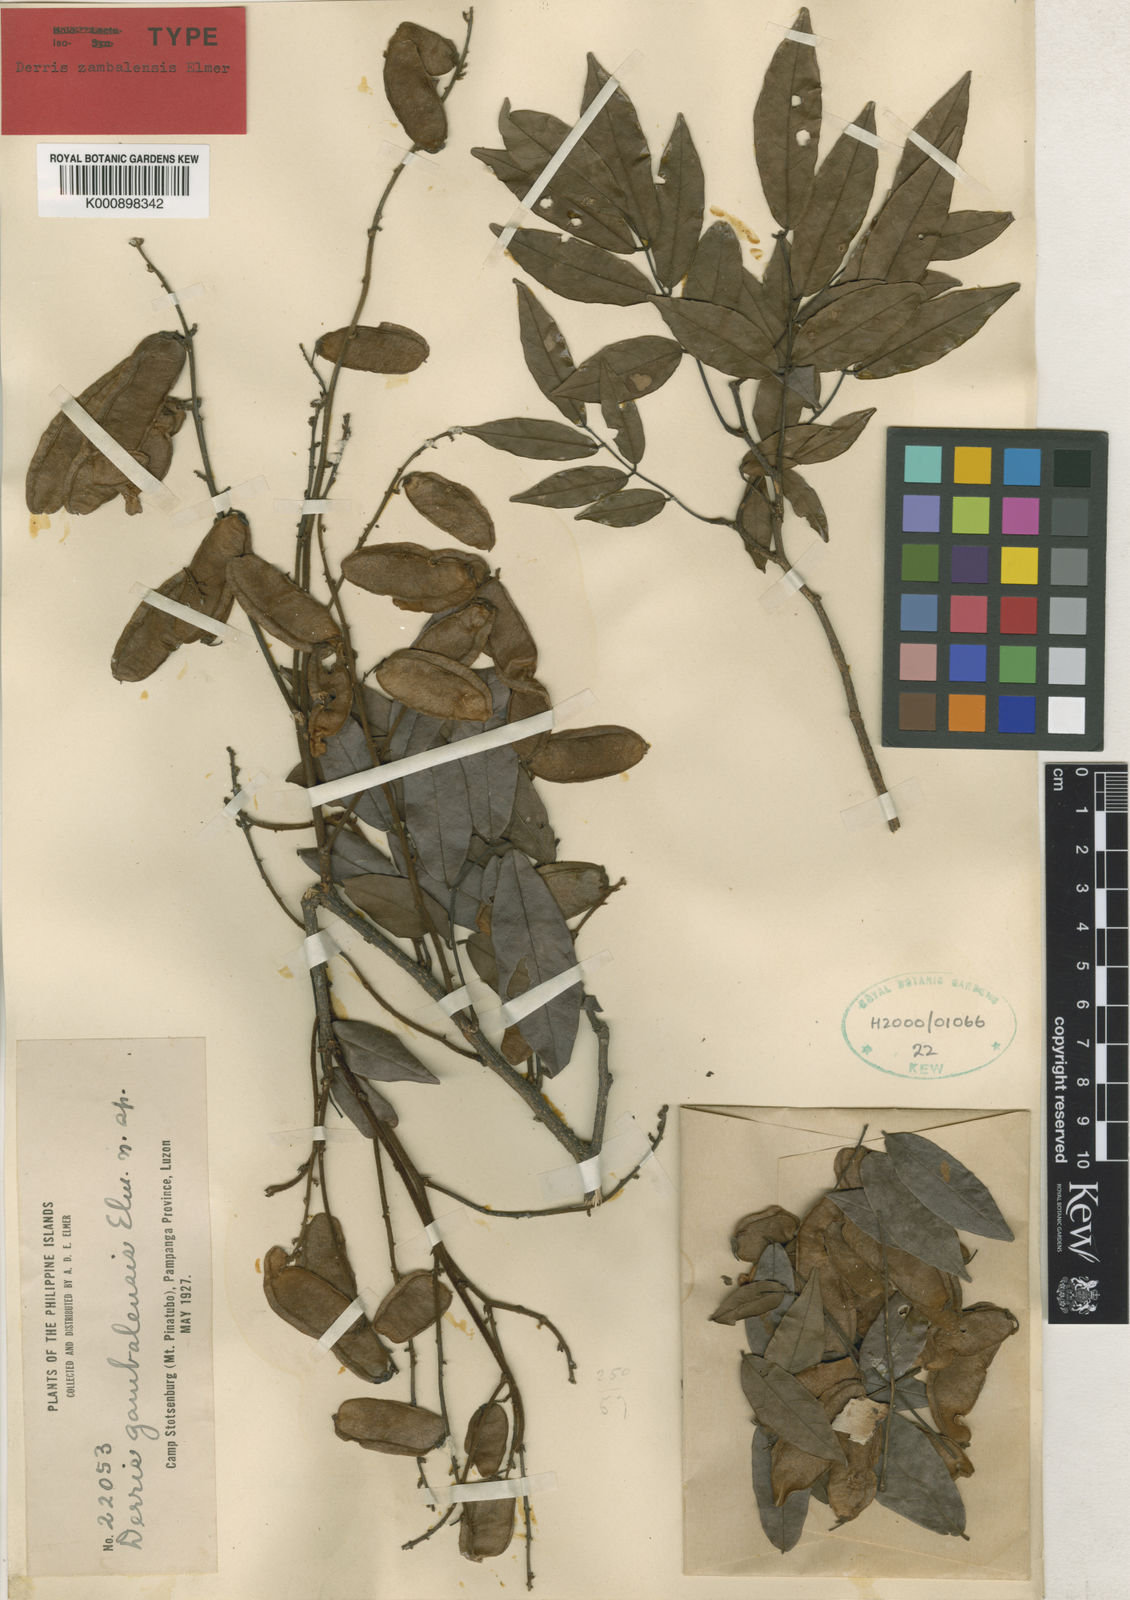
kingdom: Plantae
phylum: Tracheophyta
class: Magnoliopsida
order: Fabales
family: Fabaceae
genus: Derris
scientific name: Derris zambalensis
